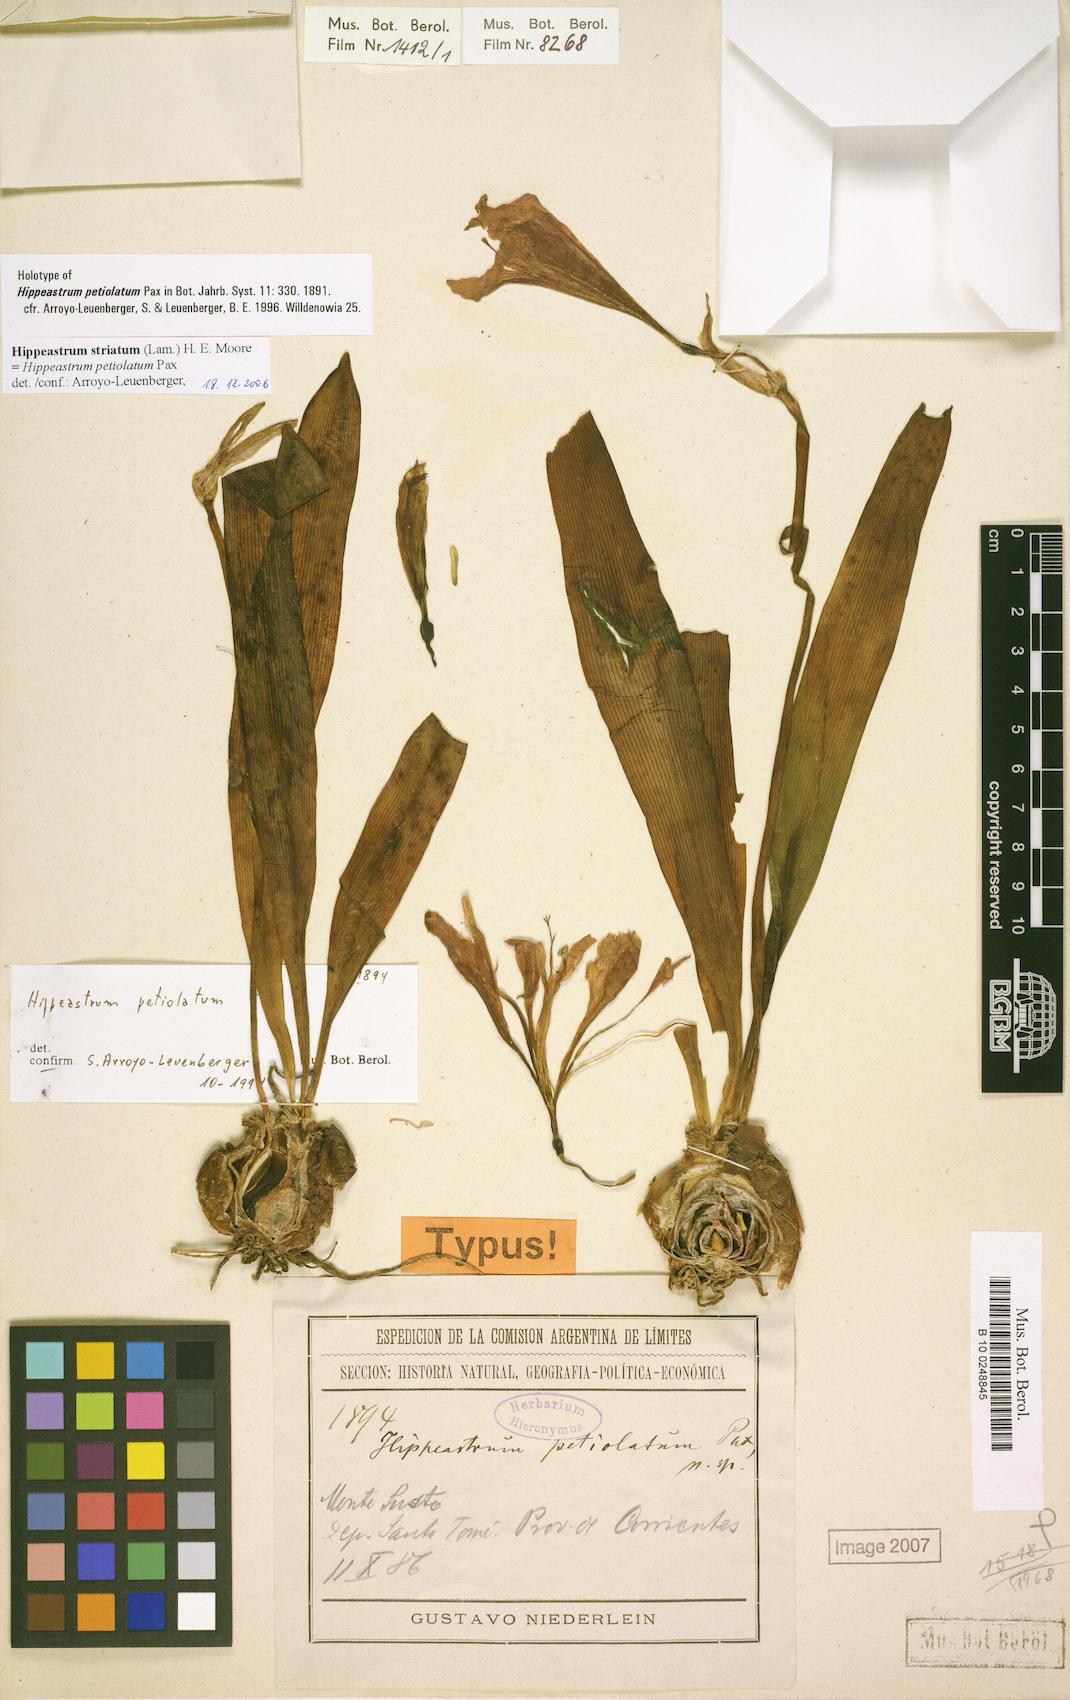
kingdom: Plantae
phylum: Tracheophyta
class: Liliopsida
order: Asparagales
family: Amaryllidaceae
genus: Hippeastrum
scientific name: Hippeastrum striatum
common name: Striped barbados lily
